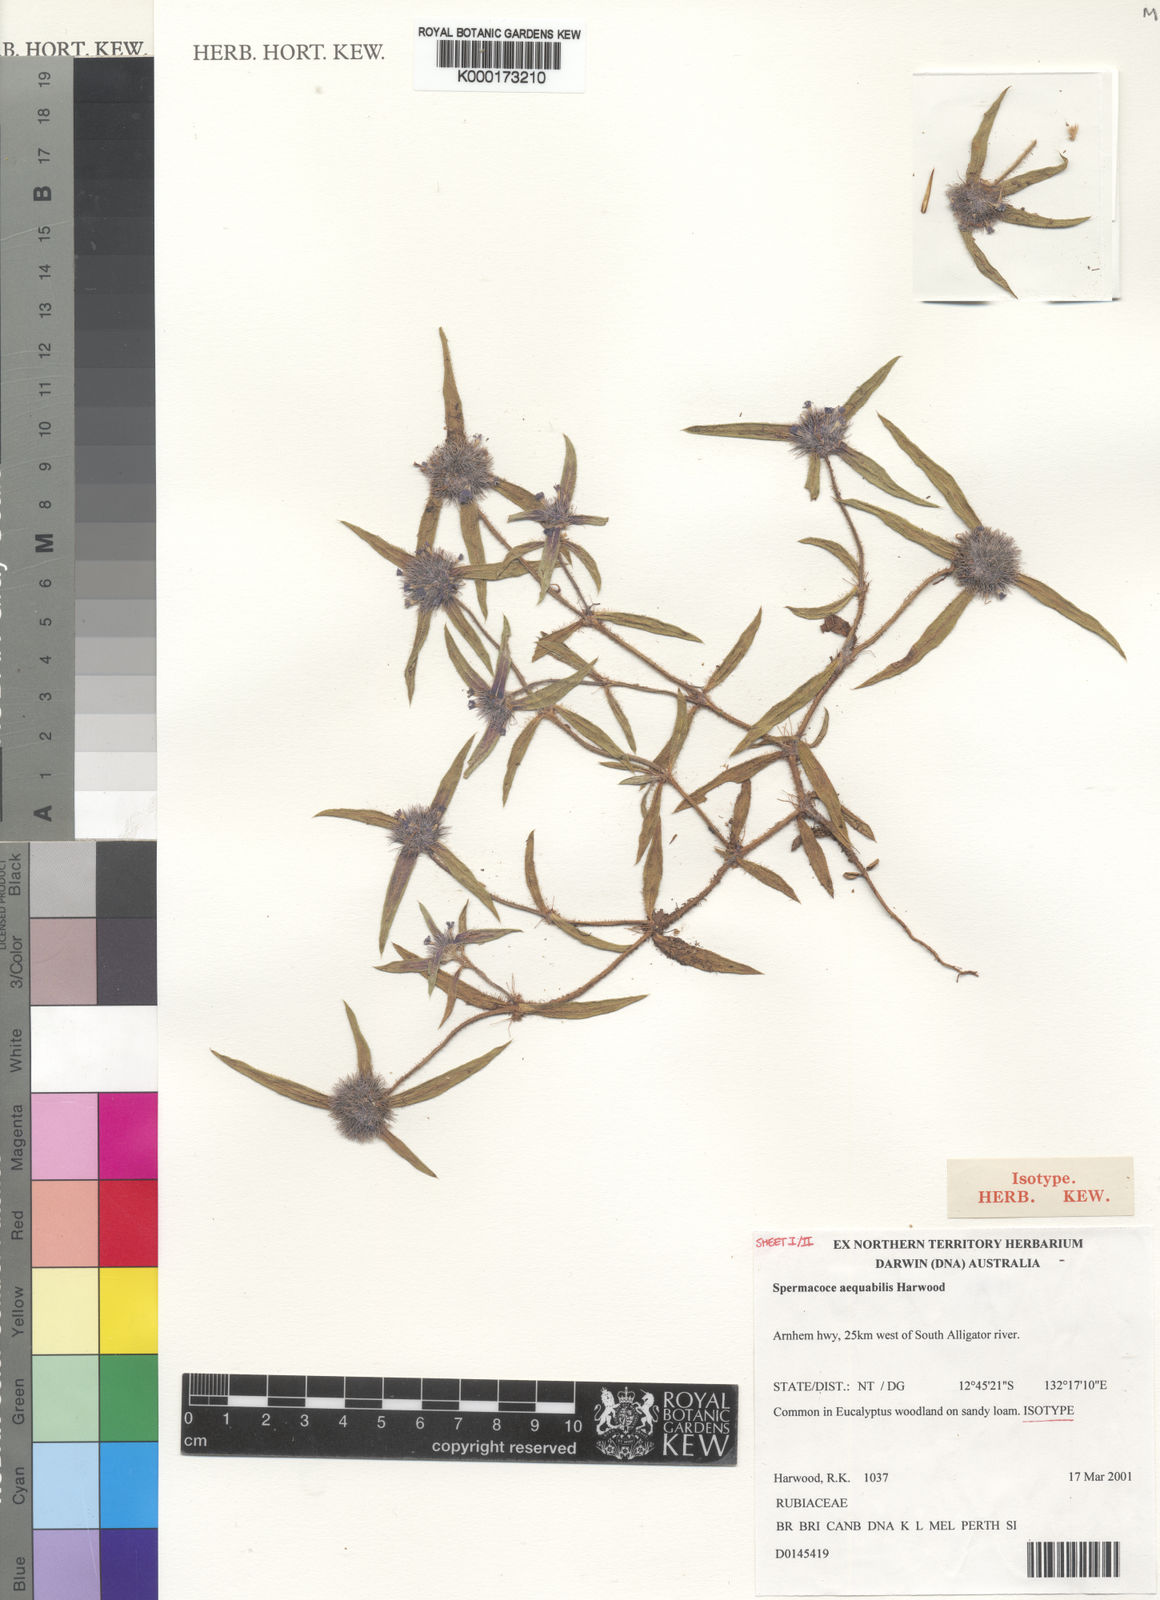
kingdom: Plantae
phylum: Tracheophyta
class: Magnoliopsida
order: Gentianales
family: Rubiaceae
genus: Spermacoce
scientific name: Spermacoce aequabilis
